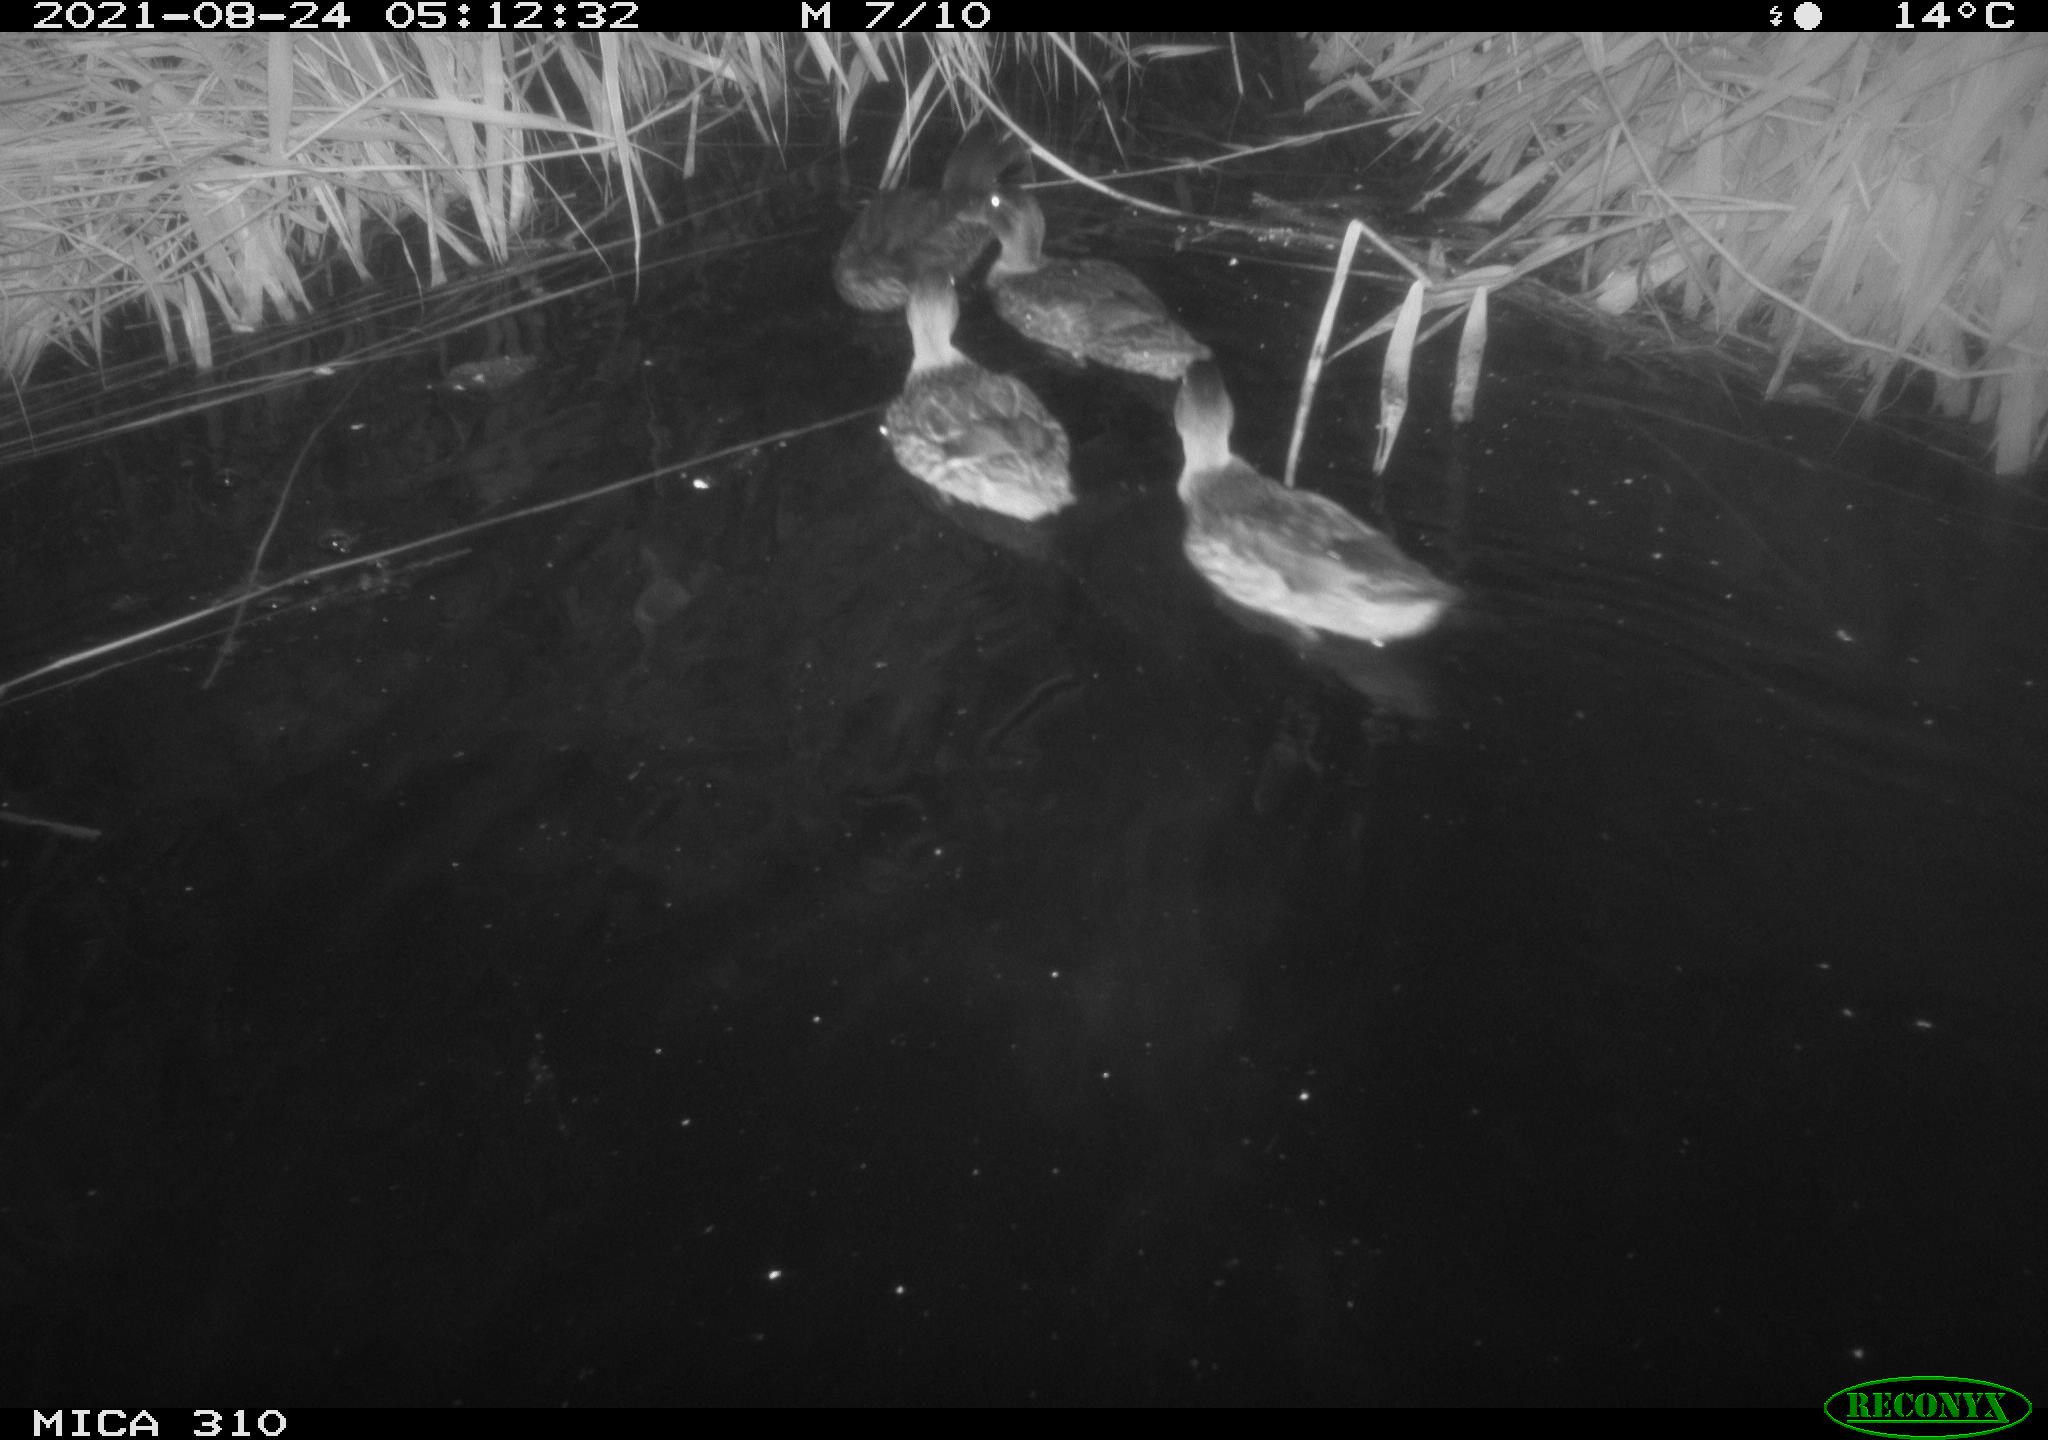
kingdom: Animalia
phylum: Chordata
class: Aves
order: Anseriformes
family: Anatidae
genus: Mareca
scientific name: Mareca strepera
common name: Gadwall
